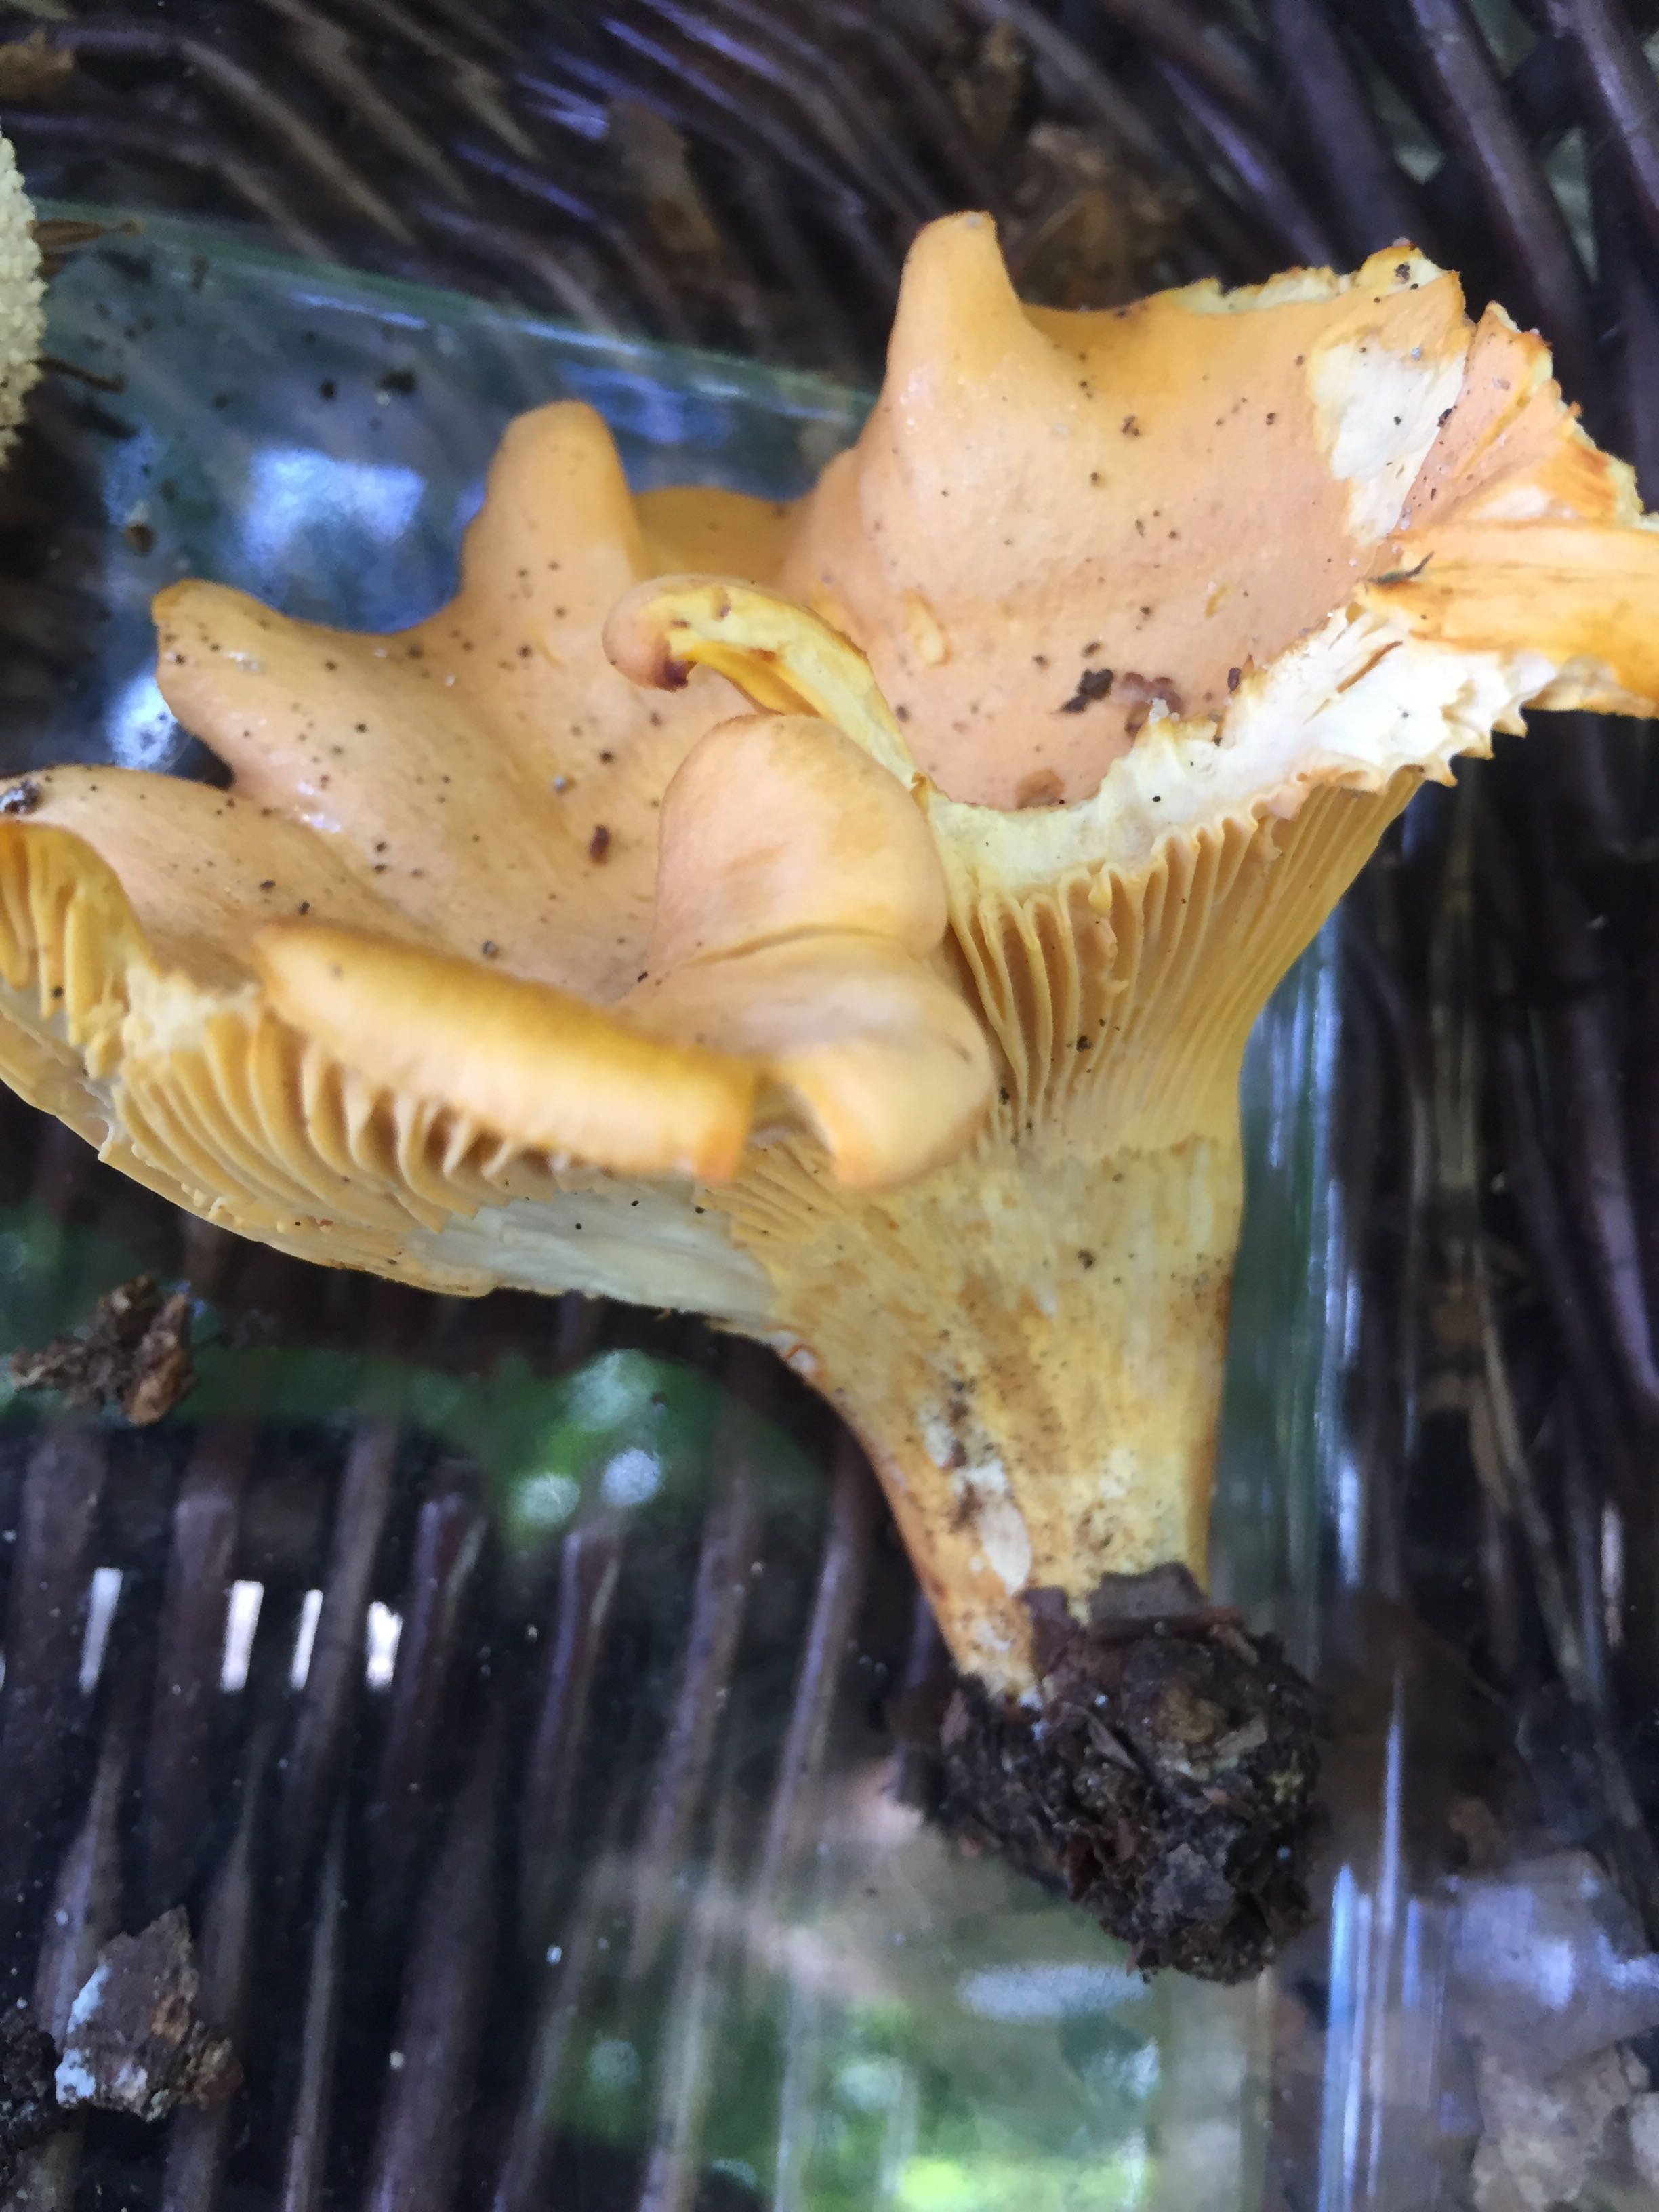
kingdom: Fungi
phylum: Basidiomycota
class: Agaricomycetes
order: Cantharellales
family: Hydnaceae
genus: Cantharellus
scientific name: Cantharellus amethysteus
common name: ametyst-kantarel
